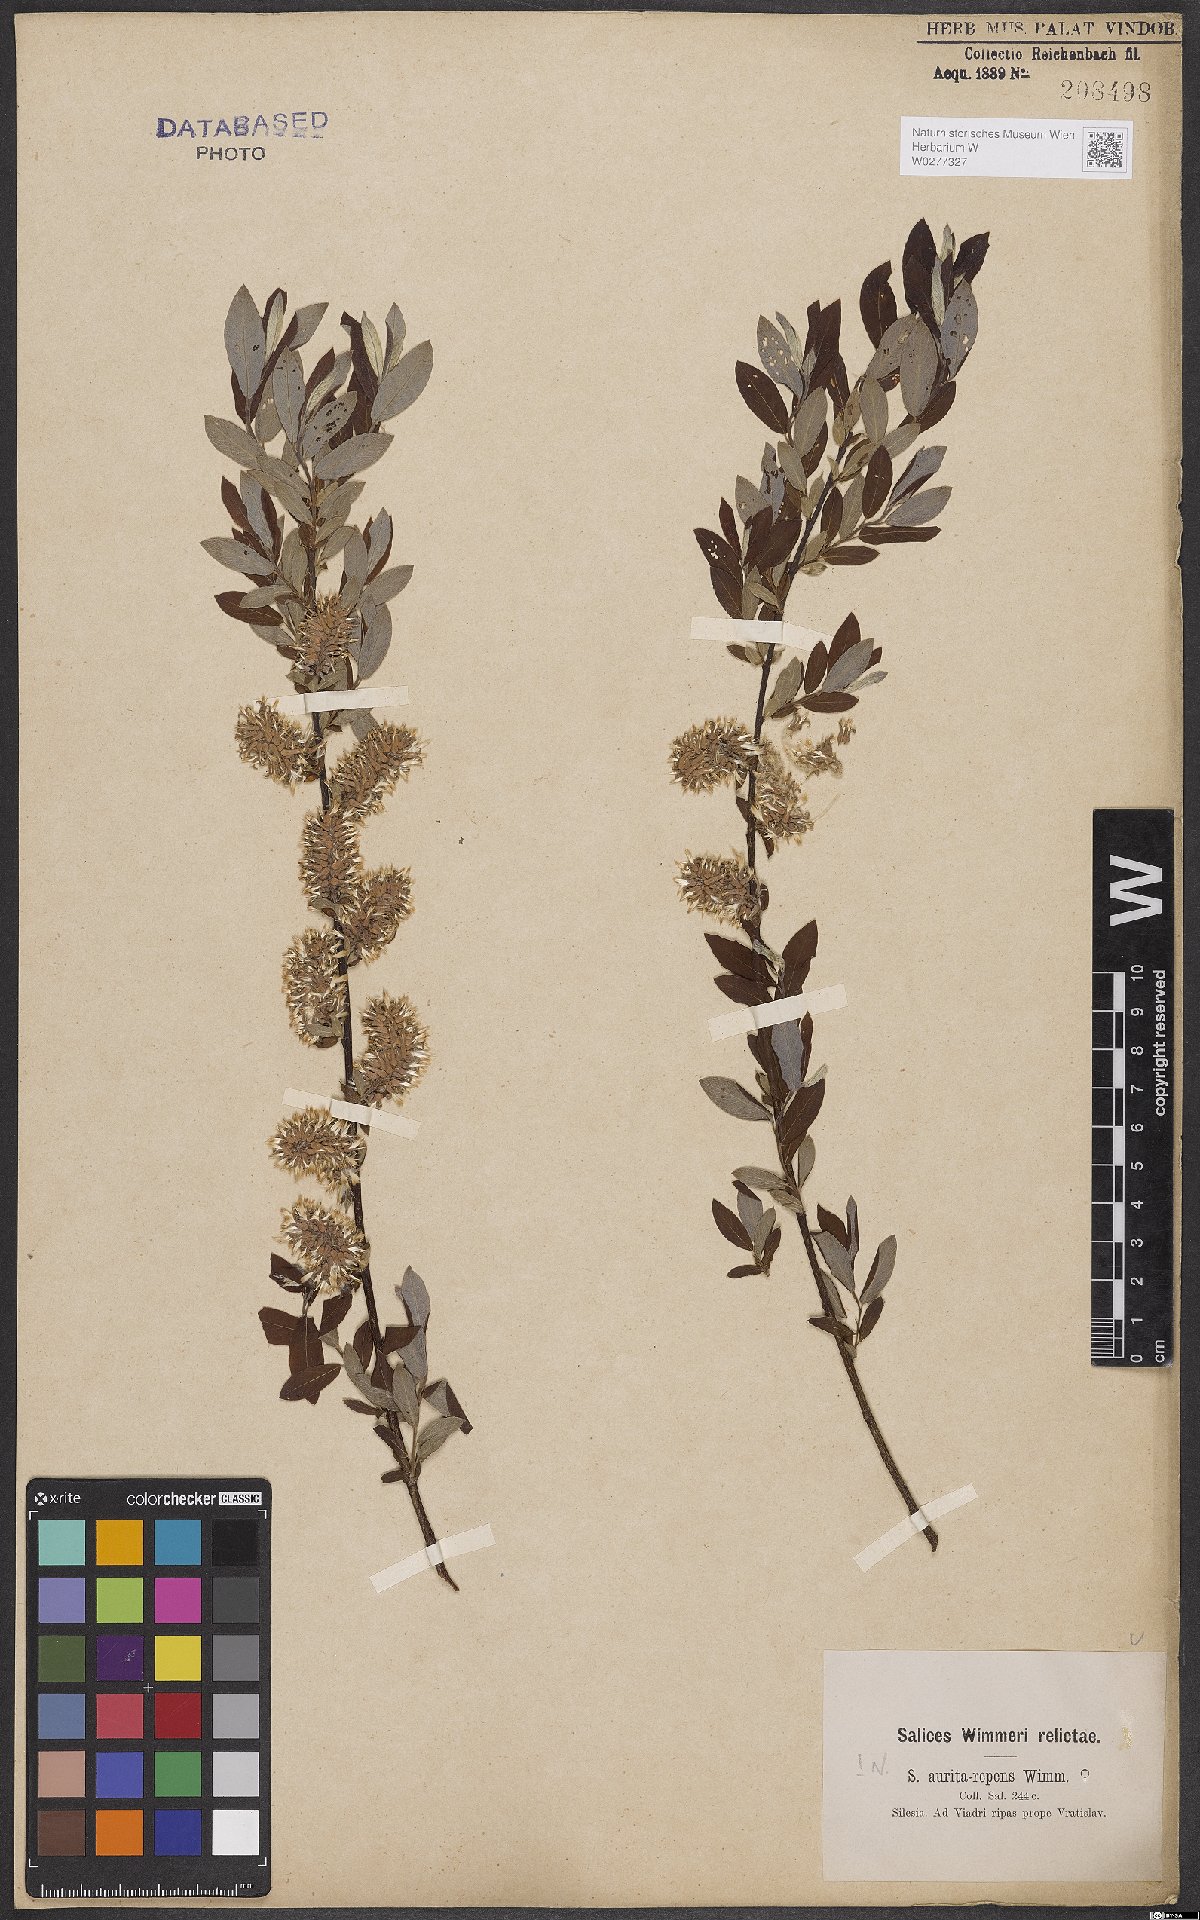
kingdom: Plantae
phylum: Tracheophyta
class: Magnoliopsida
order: Malpighiales
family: Salicaceae
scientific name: Salicaceae
